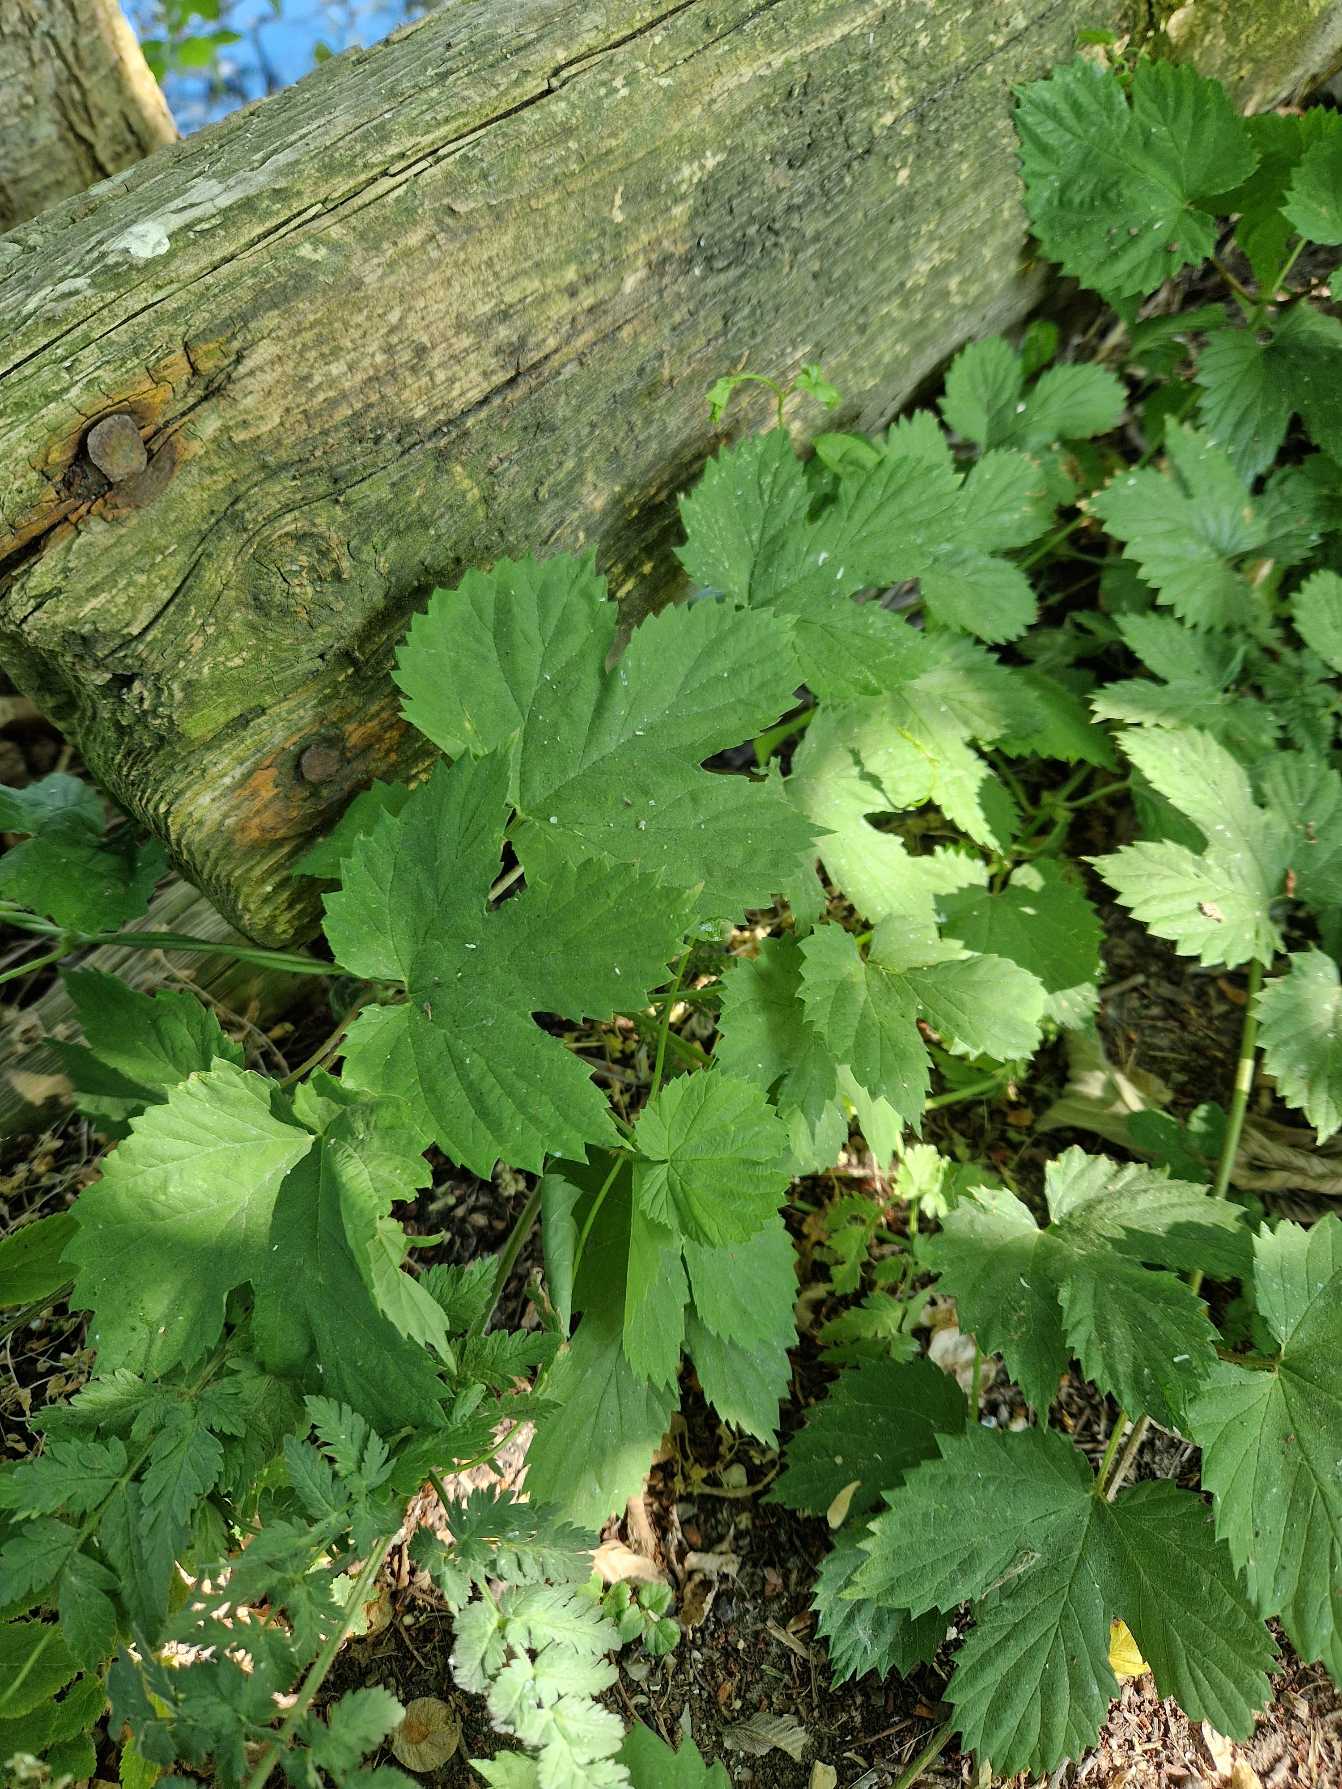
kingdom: Plantae
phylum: Tracheophyta
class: Magnoliopsida
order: Rosales
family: Cannabaceae
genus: Humulus
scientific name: Humulus lupulus
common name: Humle
